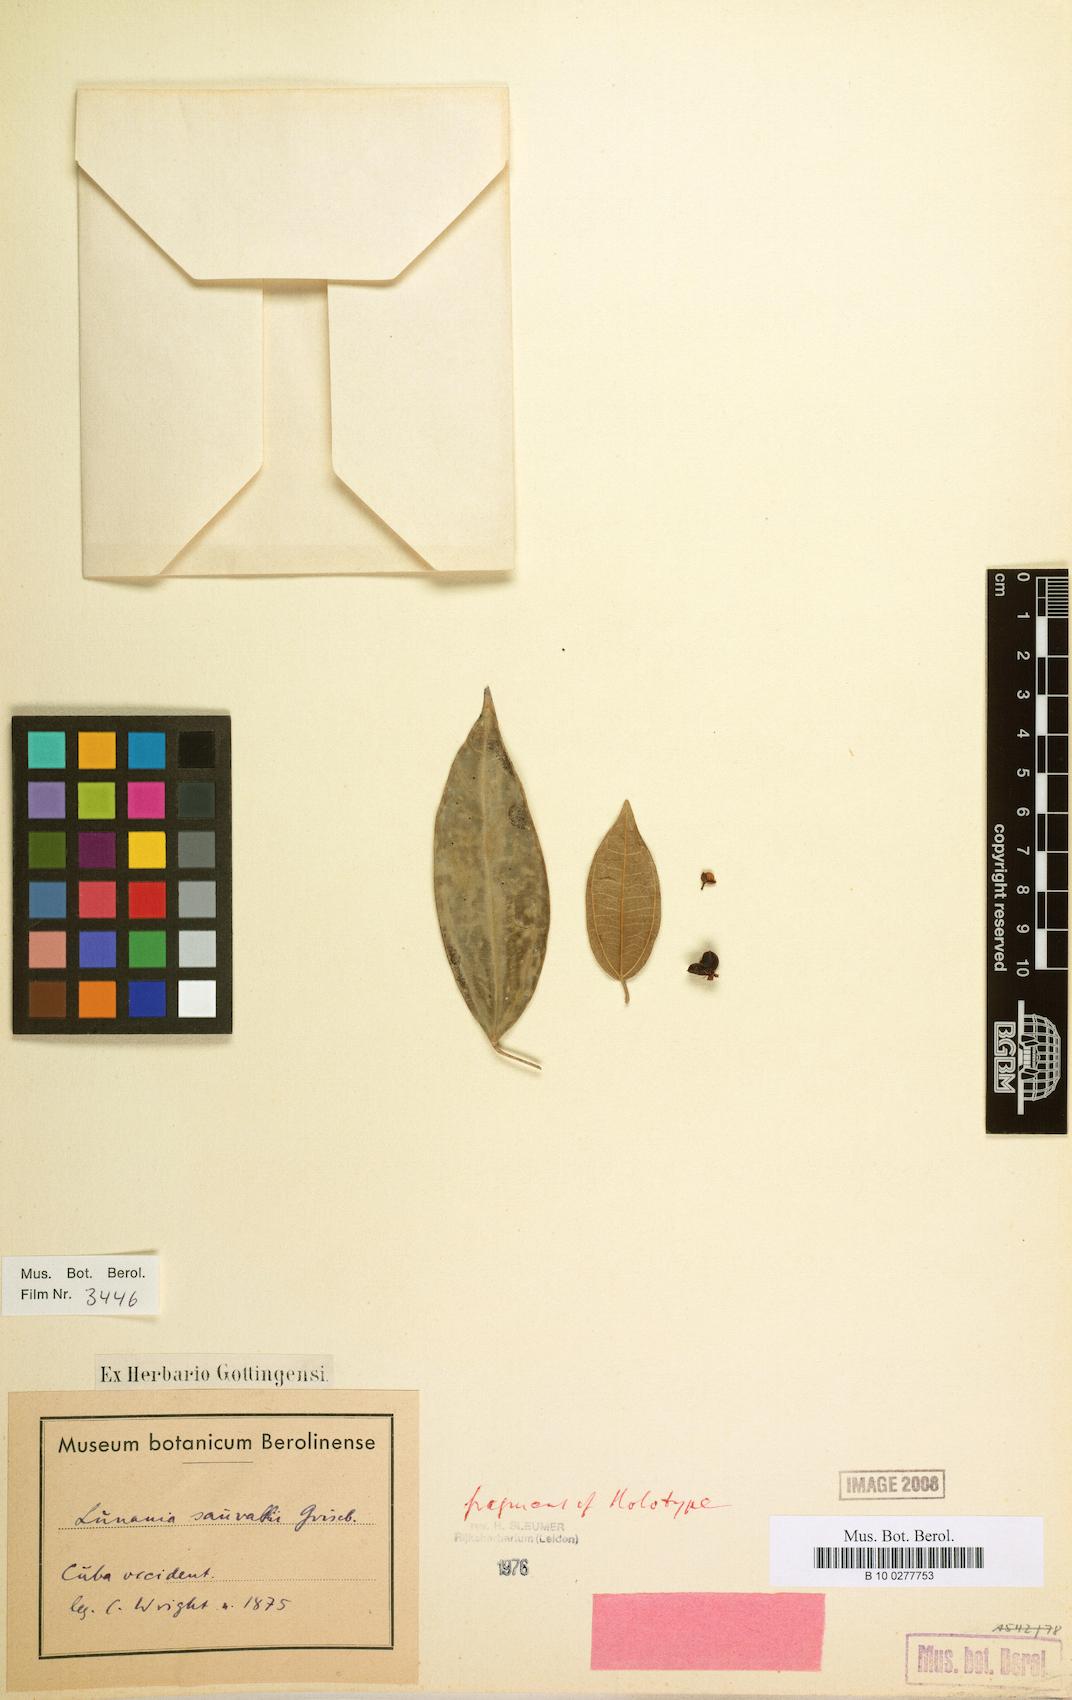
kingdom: Plantae
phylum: Tracheophyta
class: Magnoliopsida
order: Malpighiales
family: Salicaceae
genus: Lunania
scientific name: Lunania sauvallei
